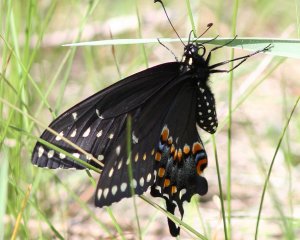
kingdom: Animalia
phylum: Arthropoda
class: Insecta
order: Lepidoptera
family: Papilionidae
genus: Papilio
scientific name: Papilio polyxenes
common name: Black Swallowtail
